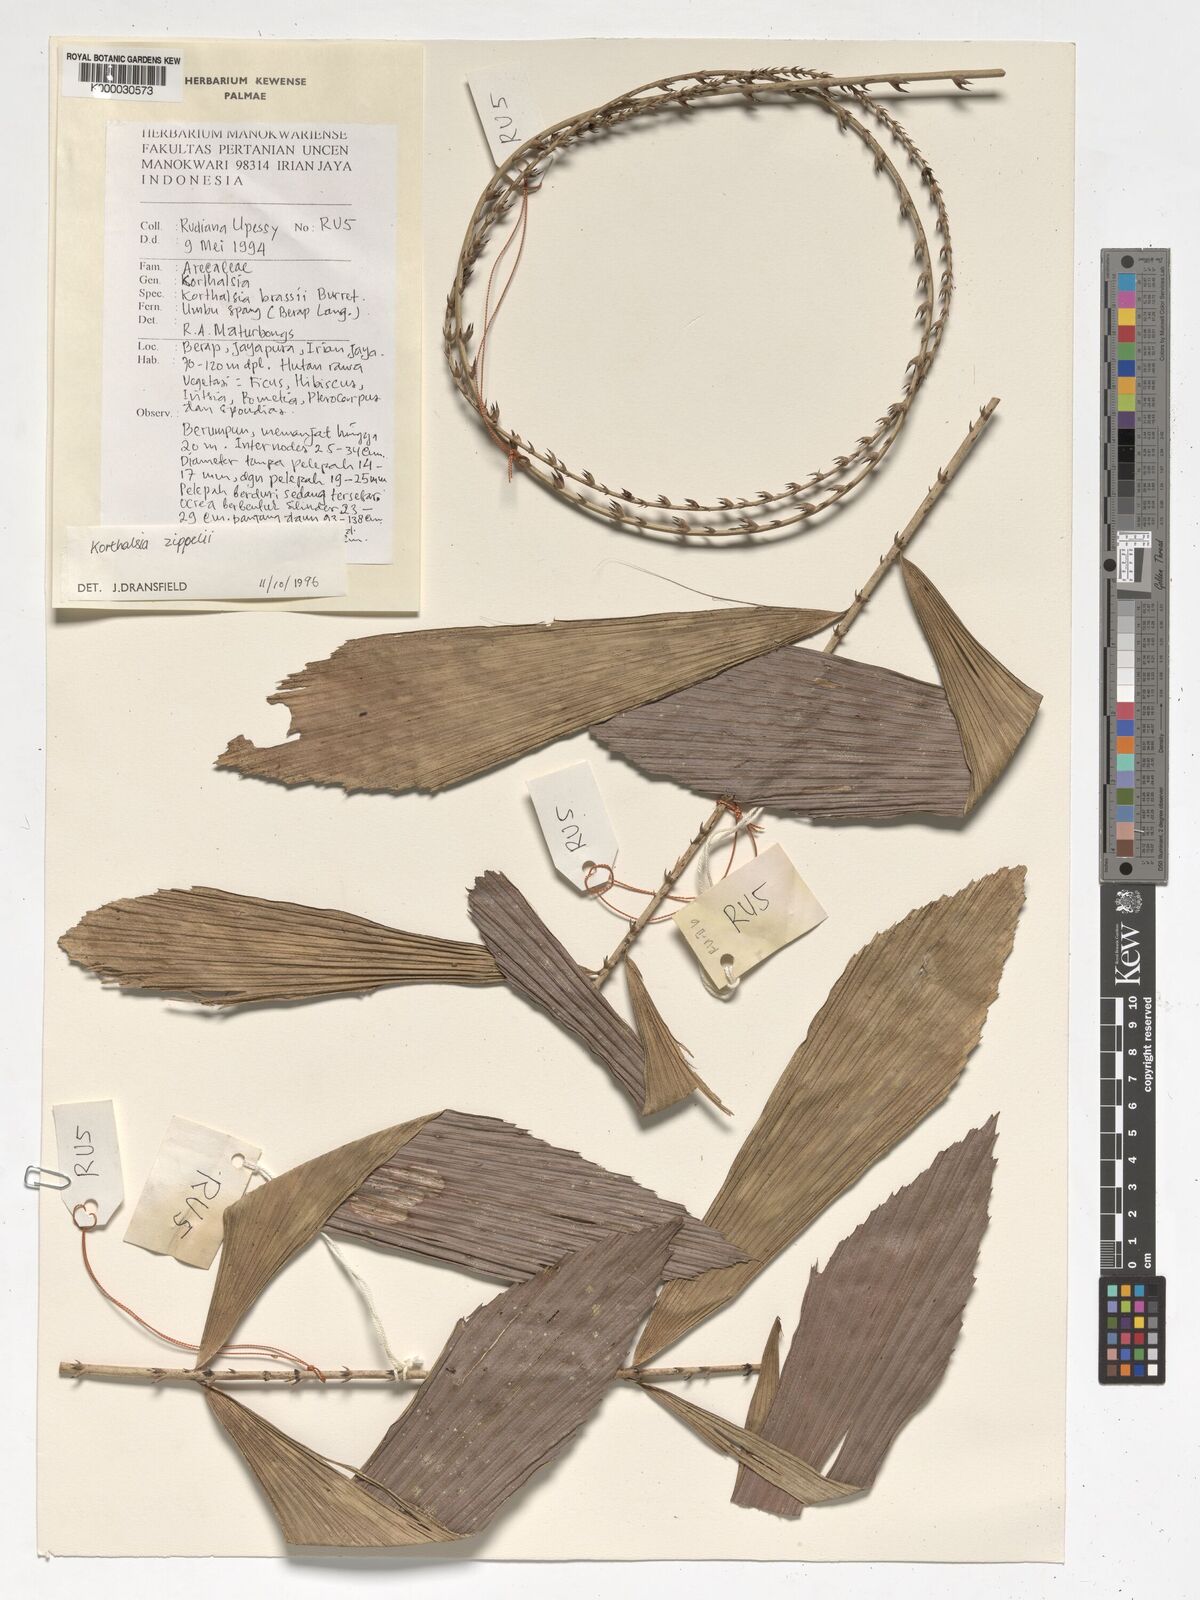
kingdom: Plantae
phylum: Tracheophyta
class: Liliopsida
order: Arecales
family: Arecaceae
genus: Korthalsia
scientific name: Korthalsia zippelii
